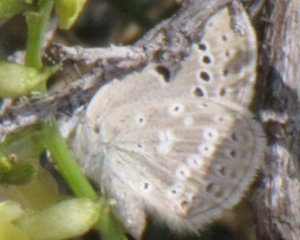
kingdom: Animalia
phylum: Arthropoda
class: Insecta
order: Lepidoptera
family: Lycaenidae
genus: Icaricia
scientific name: Icaricia icarioides
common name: Boisduval's Blue
